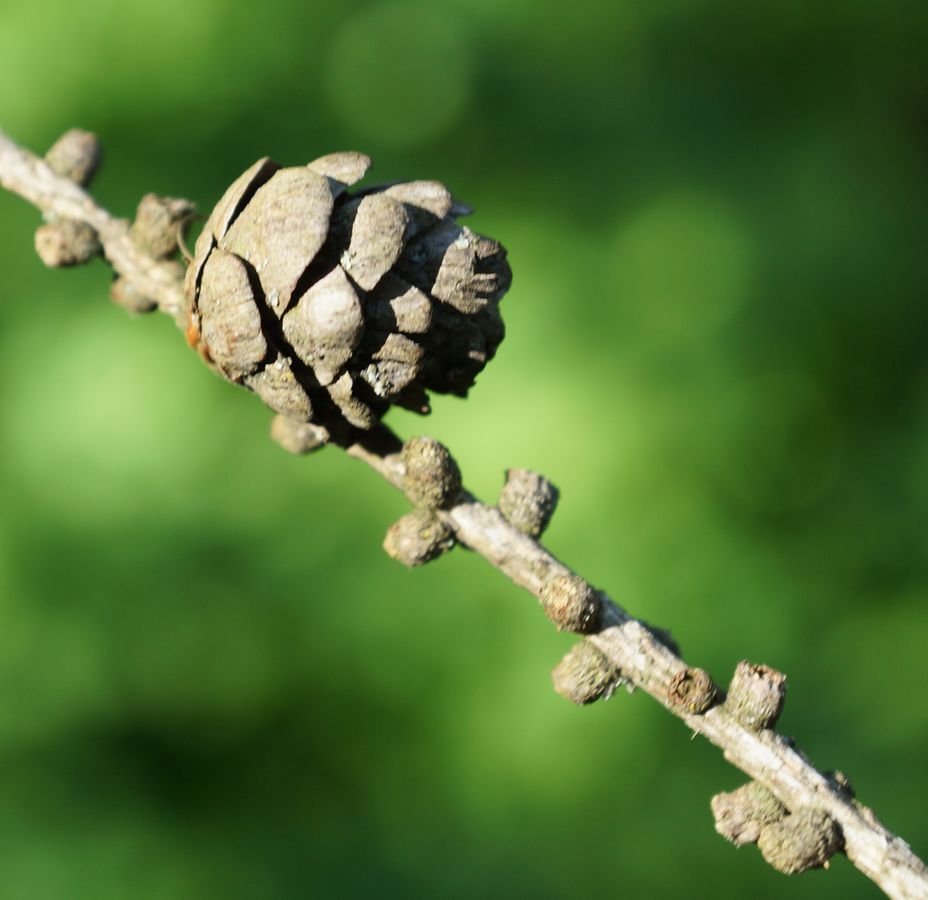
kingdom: Plantae
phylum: Tracheophyta
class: Pinopsida
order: Pinales
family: Pinaceae
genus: Larix
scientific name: Larix
